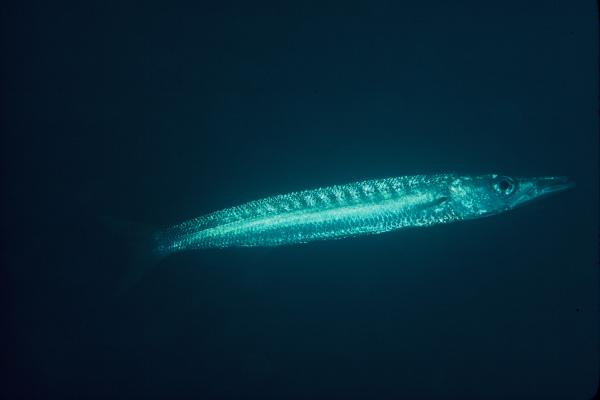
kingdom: Animalia
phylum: Chordata
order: Perciformes
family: Sphyraenidae
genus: Sphyraena
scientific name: Sphyraena
